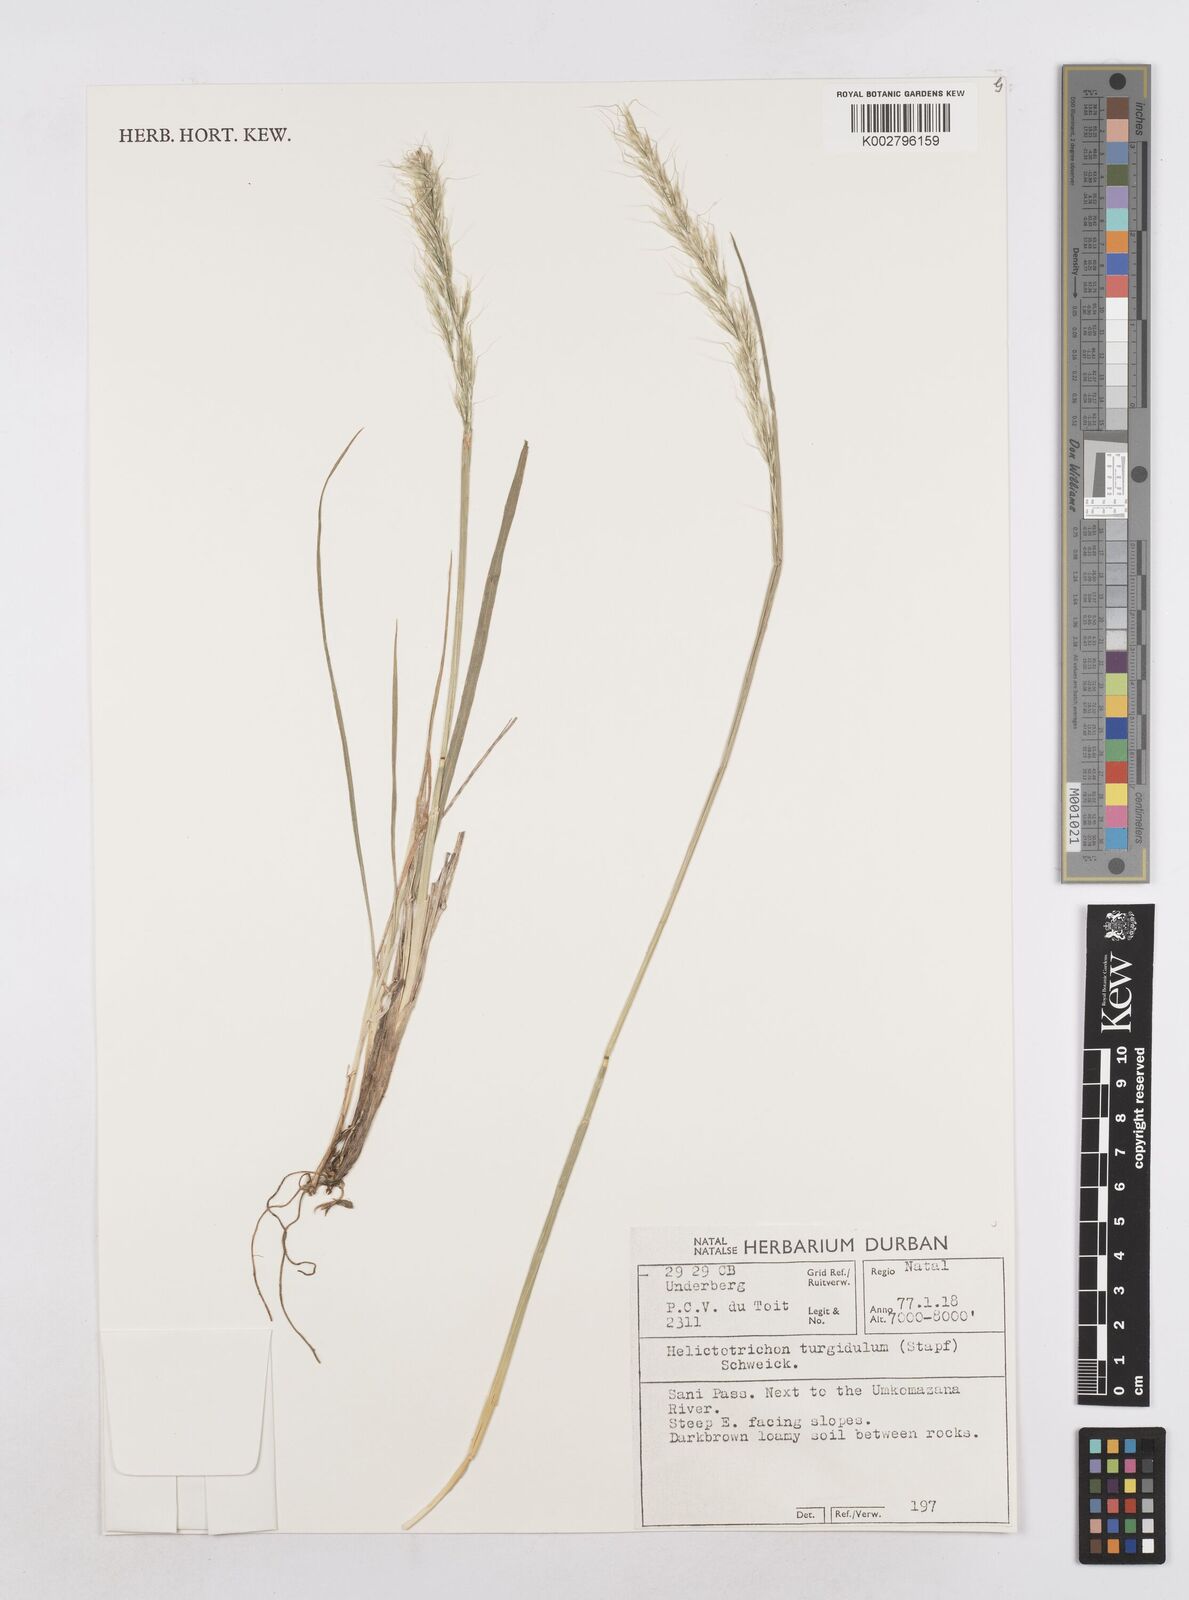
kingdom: Plantae
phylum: Tracheophyta
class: Liliopsida
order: Poales
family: Poaceae
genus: Trisetopsis
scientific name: Trisetopsis imberbis
